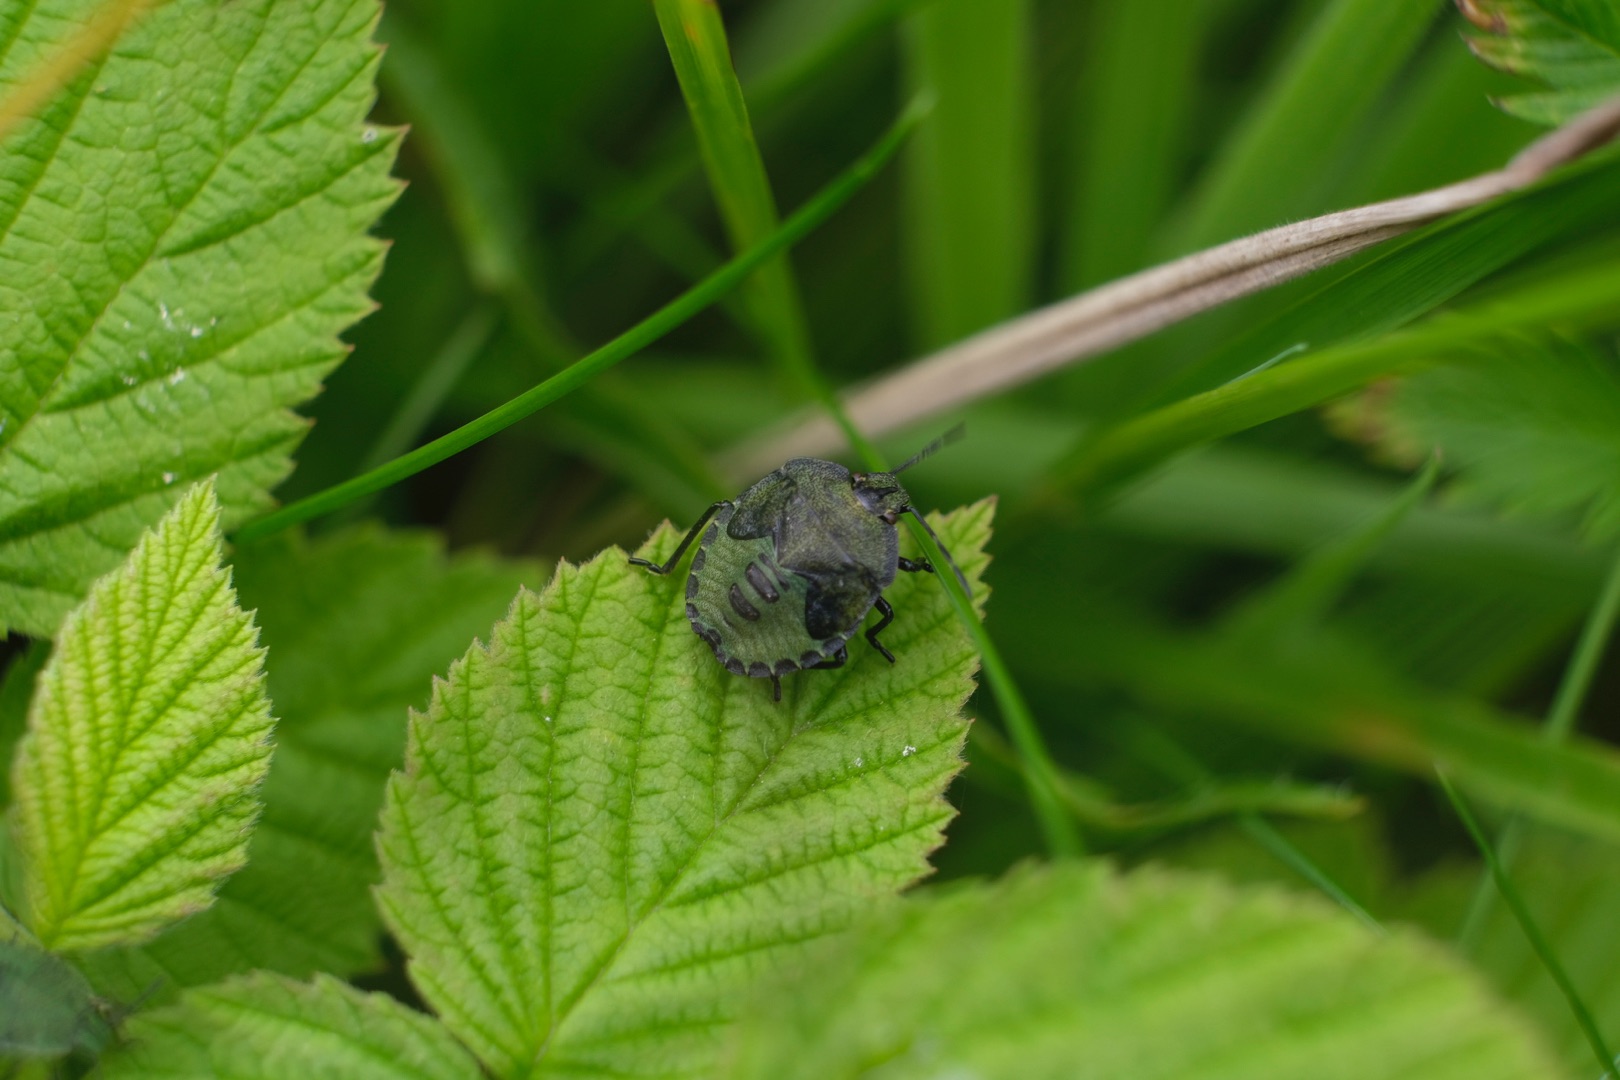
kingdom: Animalia
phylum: Arthropoda
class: Insecta
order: Hemiptera
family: Pentatomidae
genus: Palomena
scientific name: Palomena prasina
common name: Grøn bredtæge
